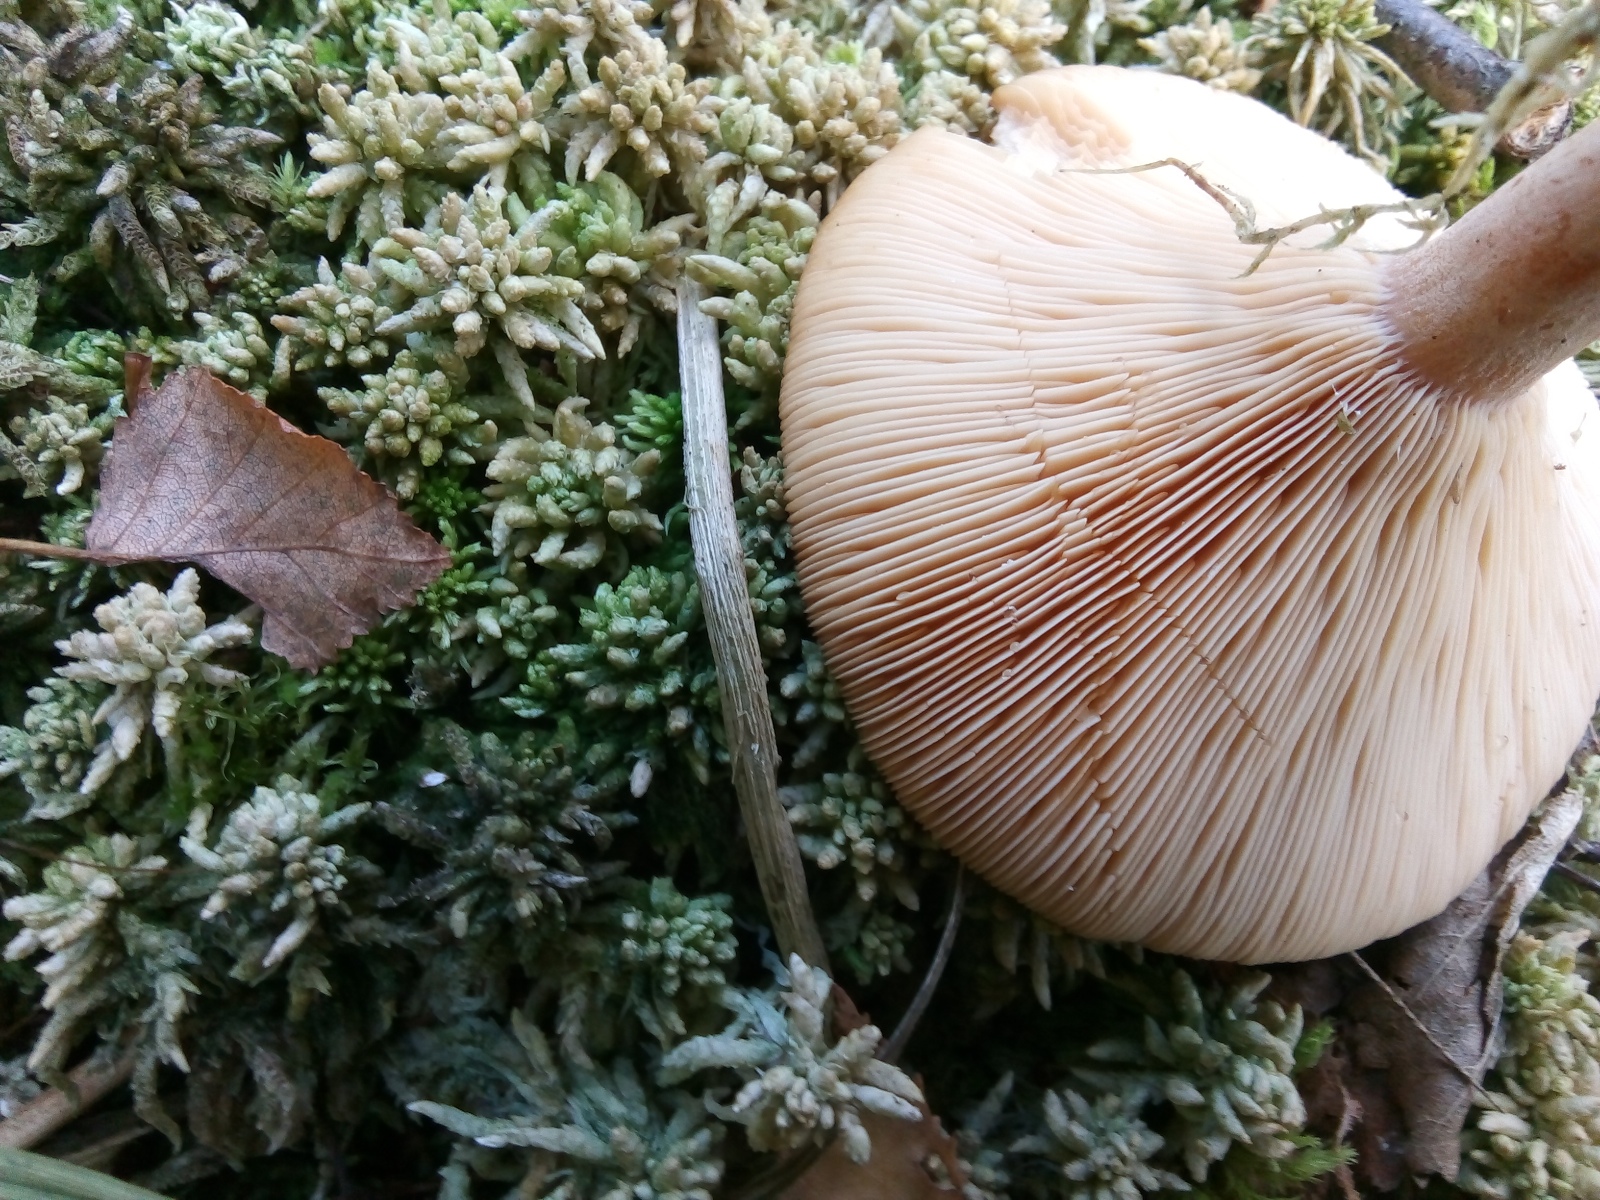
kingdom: Fungi
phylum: Basidiomycota
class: Agaricomycetes
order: Russulales
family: Russulaceae
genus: Lactarius
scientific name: Lactarius helvus
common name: mose-mælkehat
